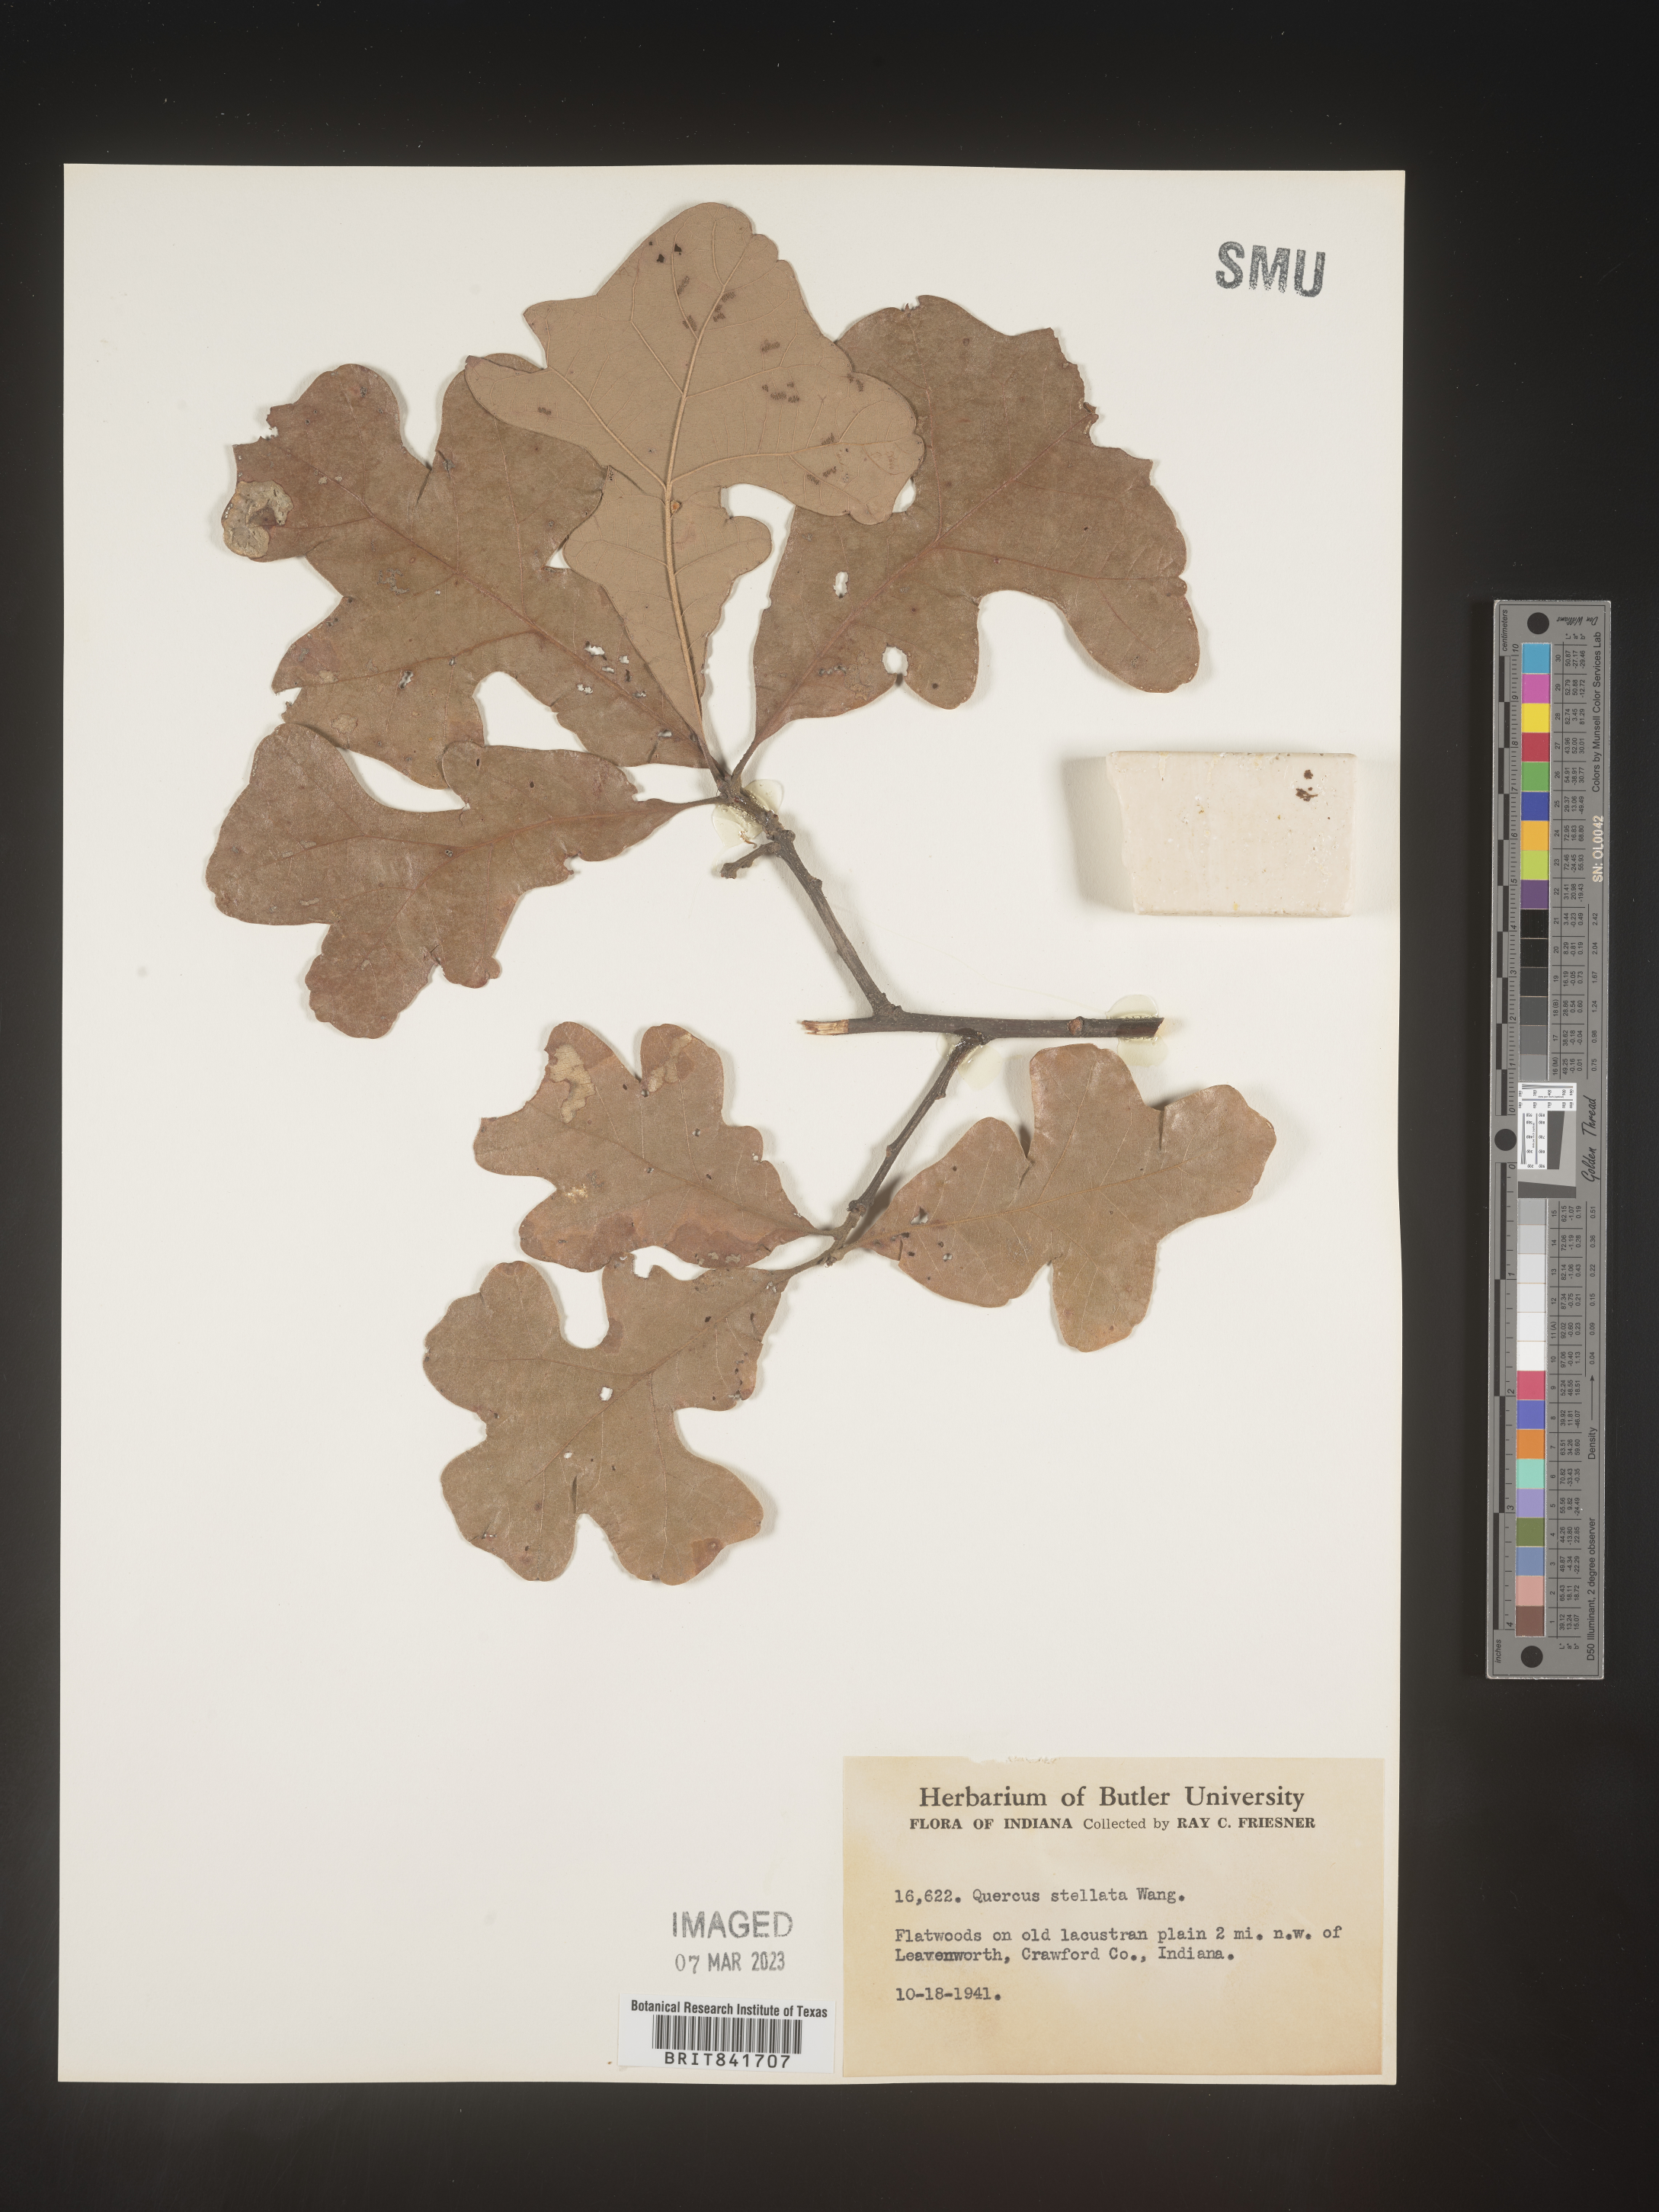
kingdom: Plantae
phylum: Tracheophyta
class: Magnoliopsida
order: Fagales
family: Fagaceae
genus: Quercus
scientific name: Quercus stellata
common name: Post oak
